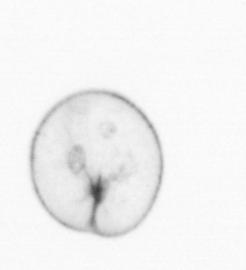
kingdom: Chromista
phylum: Myzozoa
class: Dinophyceae
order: Noctilucales
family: Noctilucaceae
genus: Noctiluca
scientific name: Noctiluca scintillans
